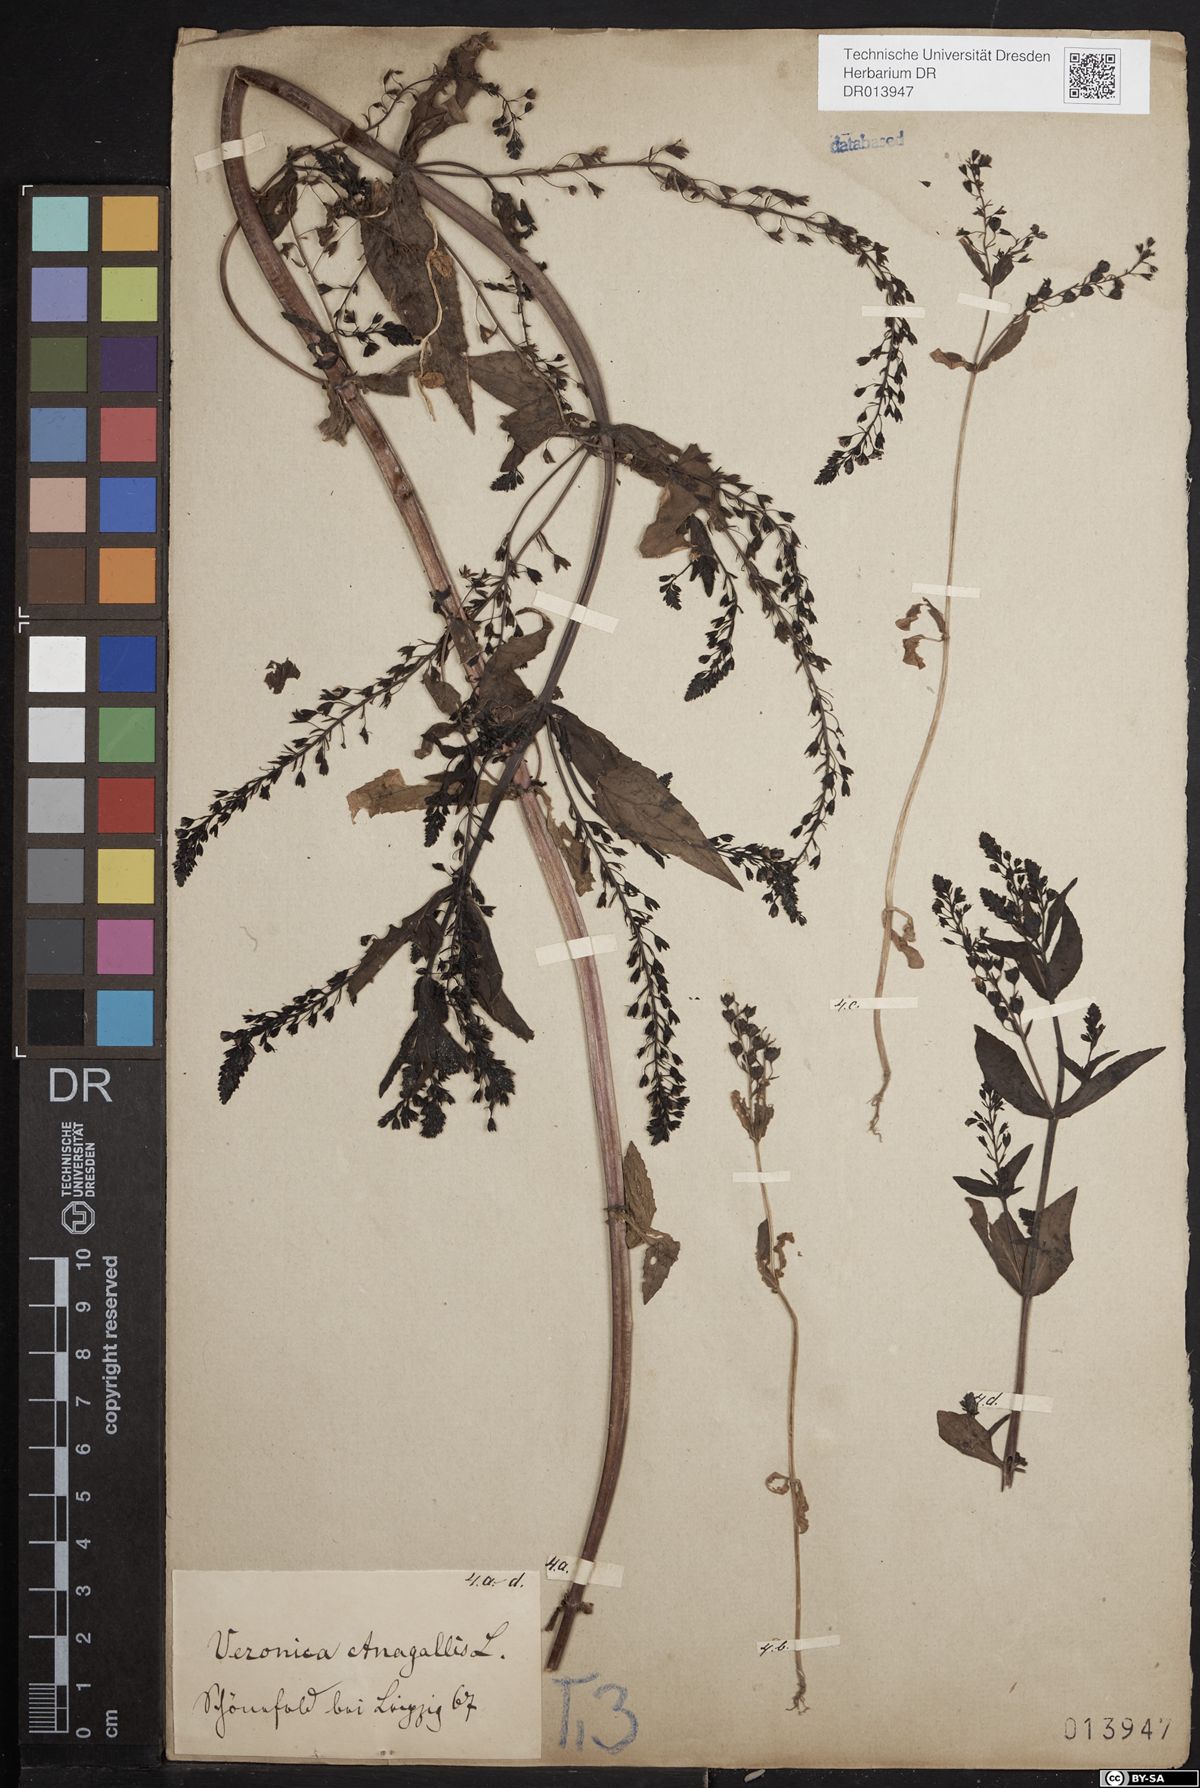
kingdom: Plantae
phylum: Tracheophyta
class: Magnoliopsida
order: Lamiales
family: Plantaginaceae
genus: Veronica
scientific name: Veronica anagallis-aquatica
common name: Water speedwell
